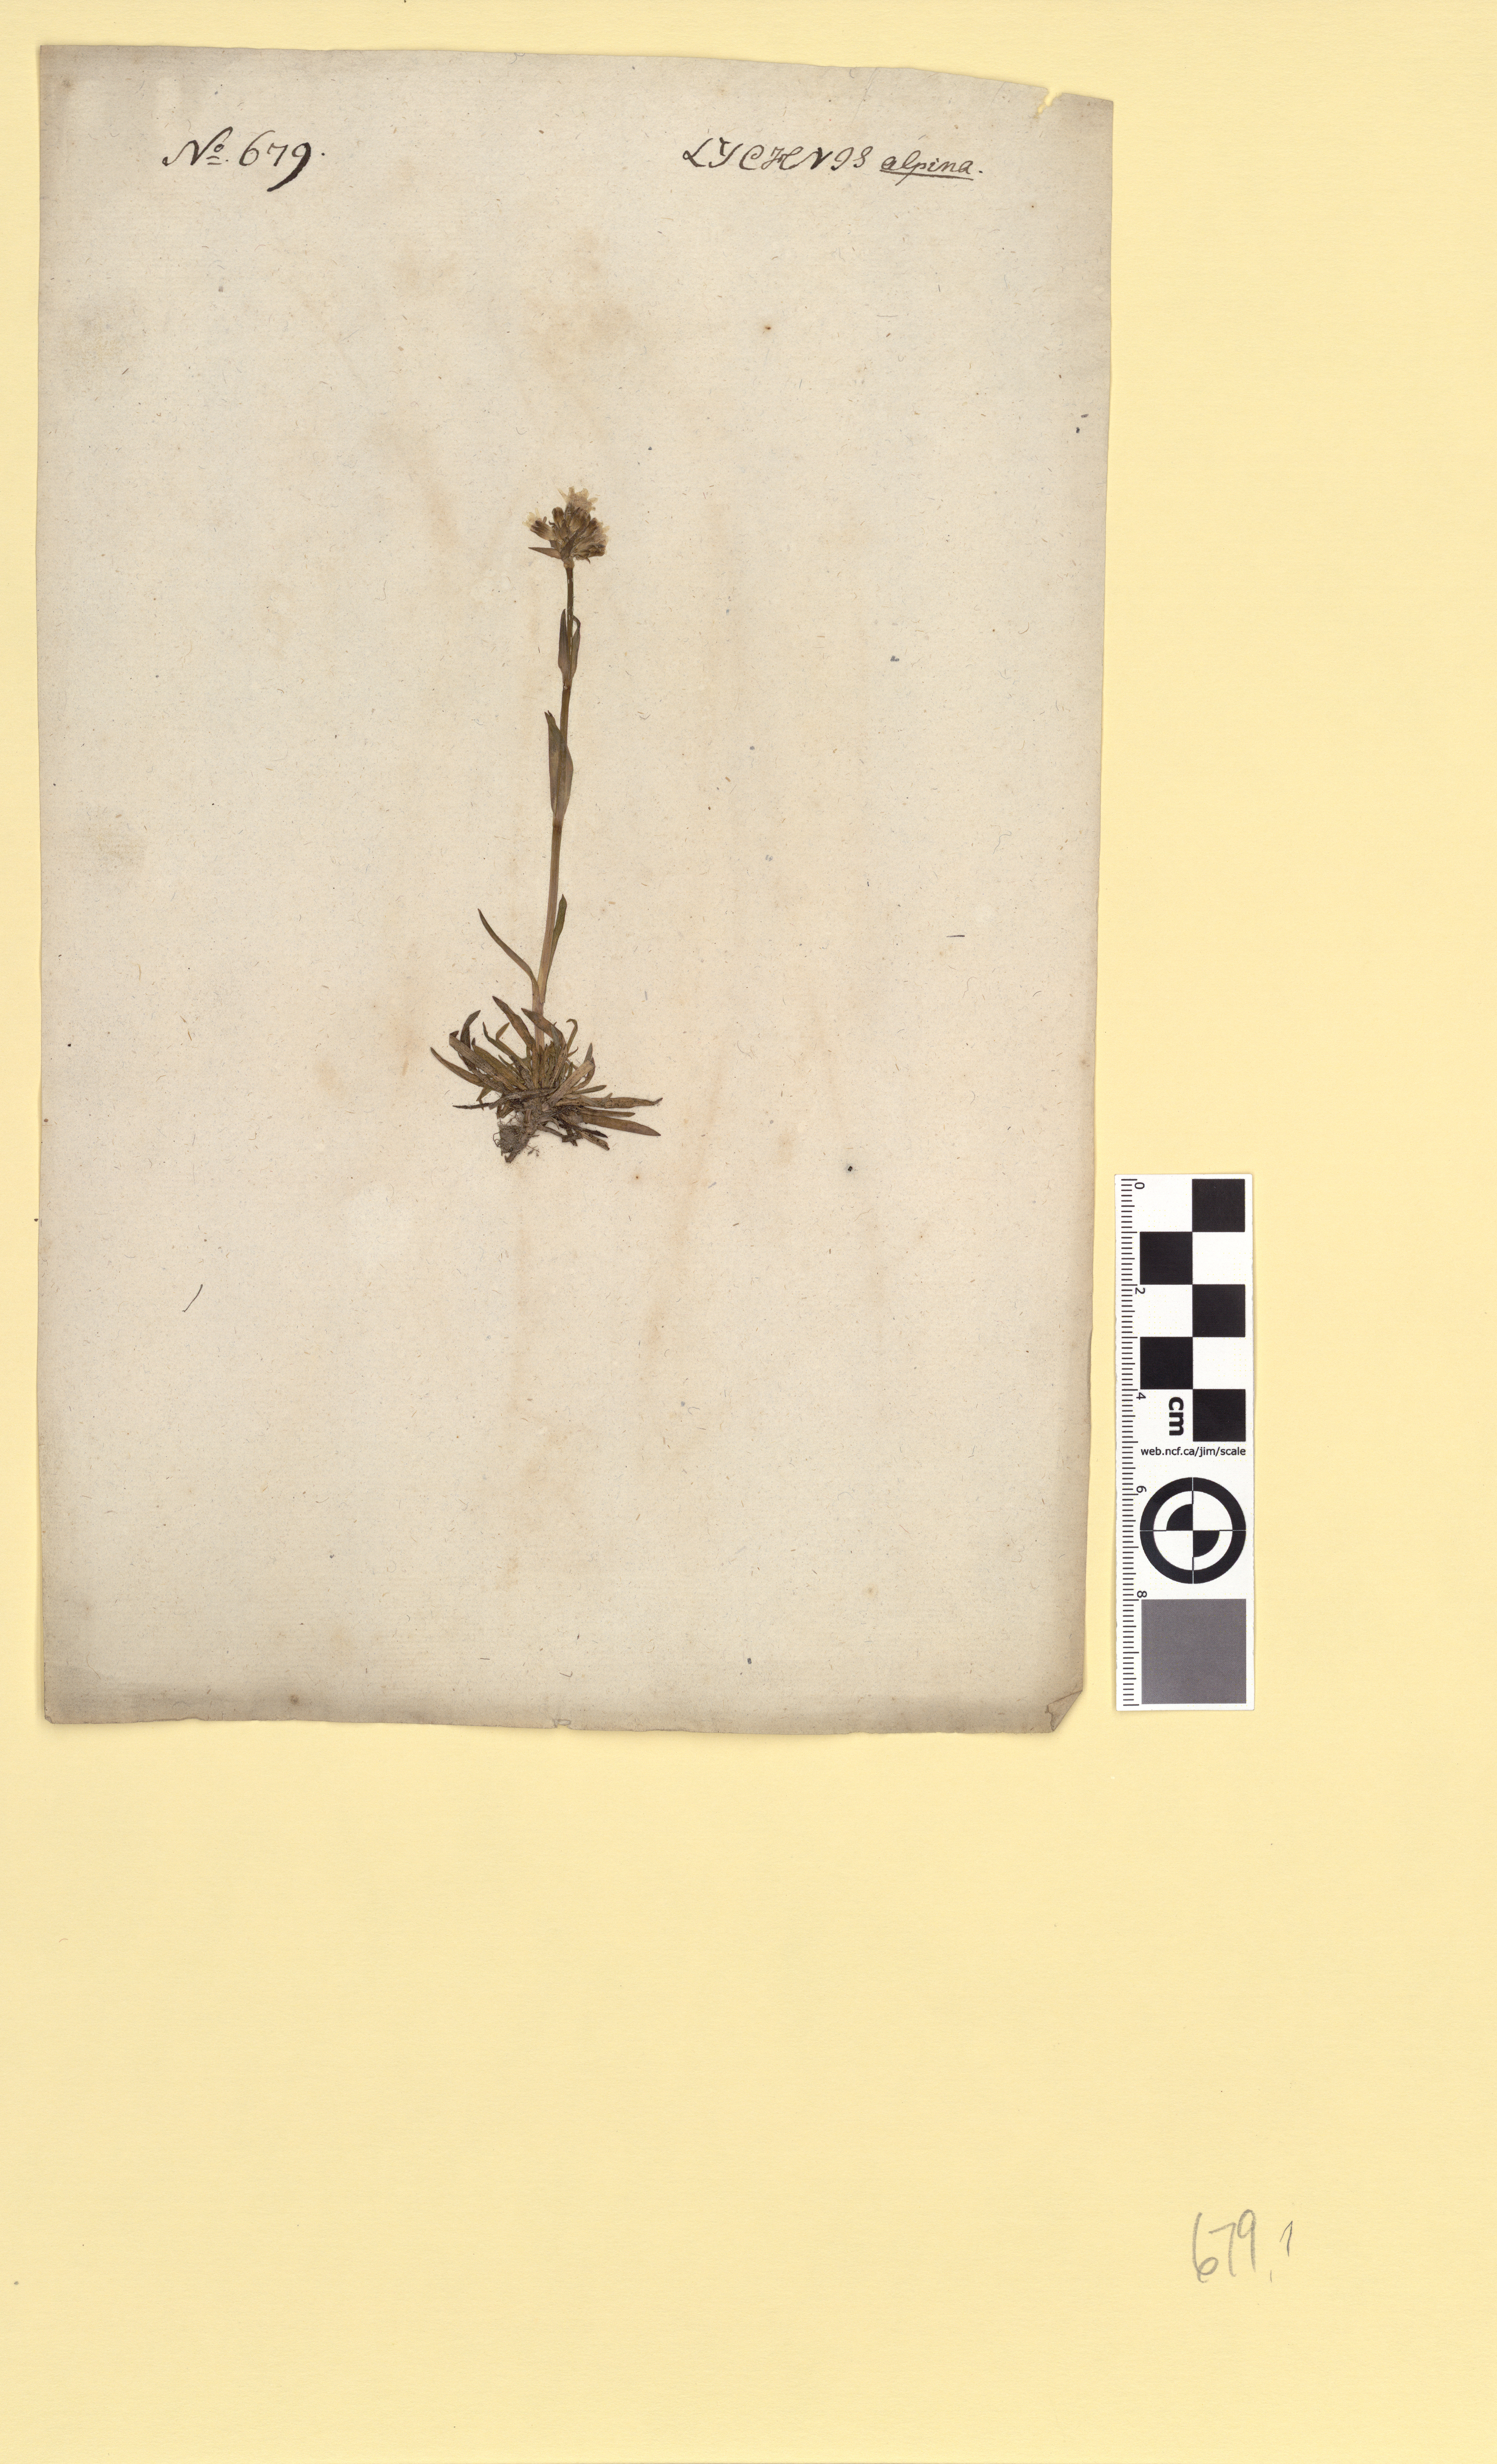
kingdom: Plantae
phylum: Tracheophyta
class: Magnoliopsida
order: Caryophyllales
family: Caryophyllaceae
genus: Viscaria
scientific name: Viscaria alpina
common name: Alpine campion
